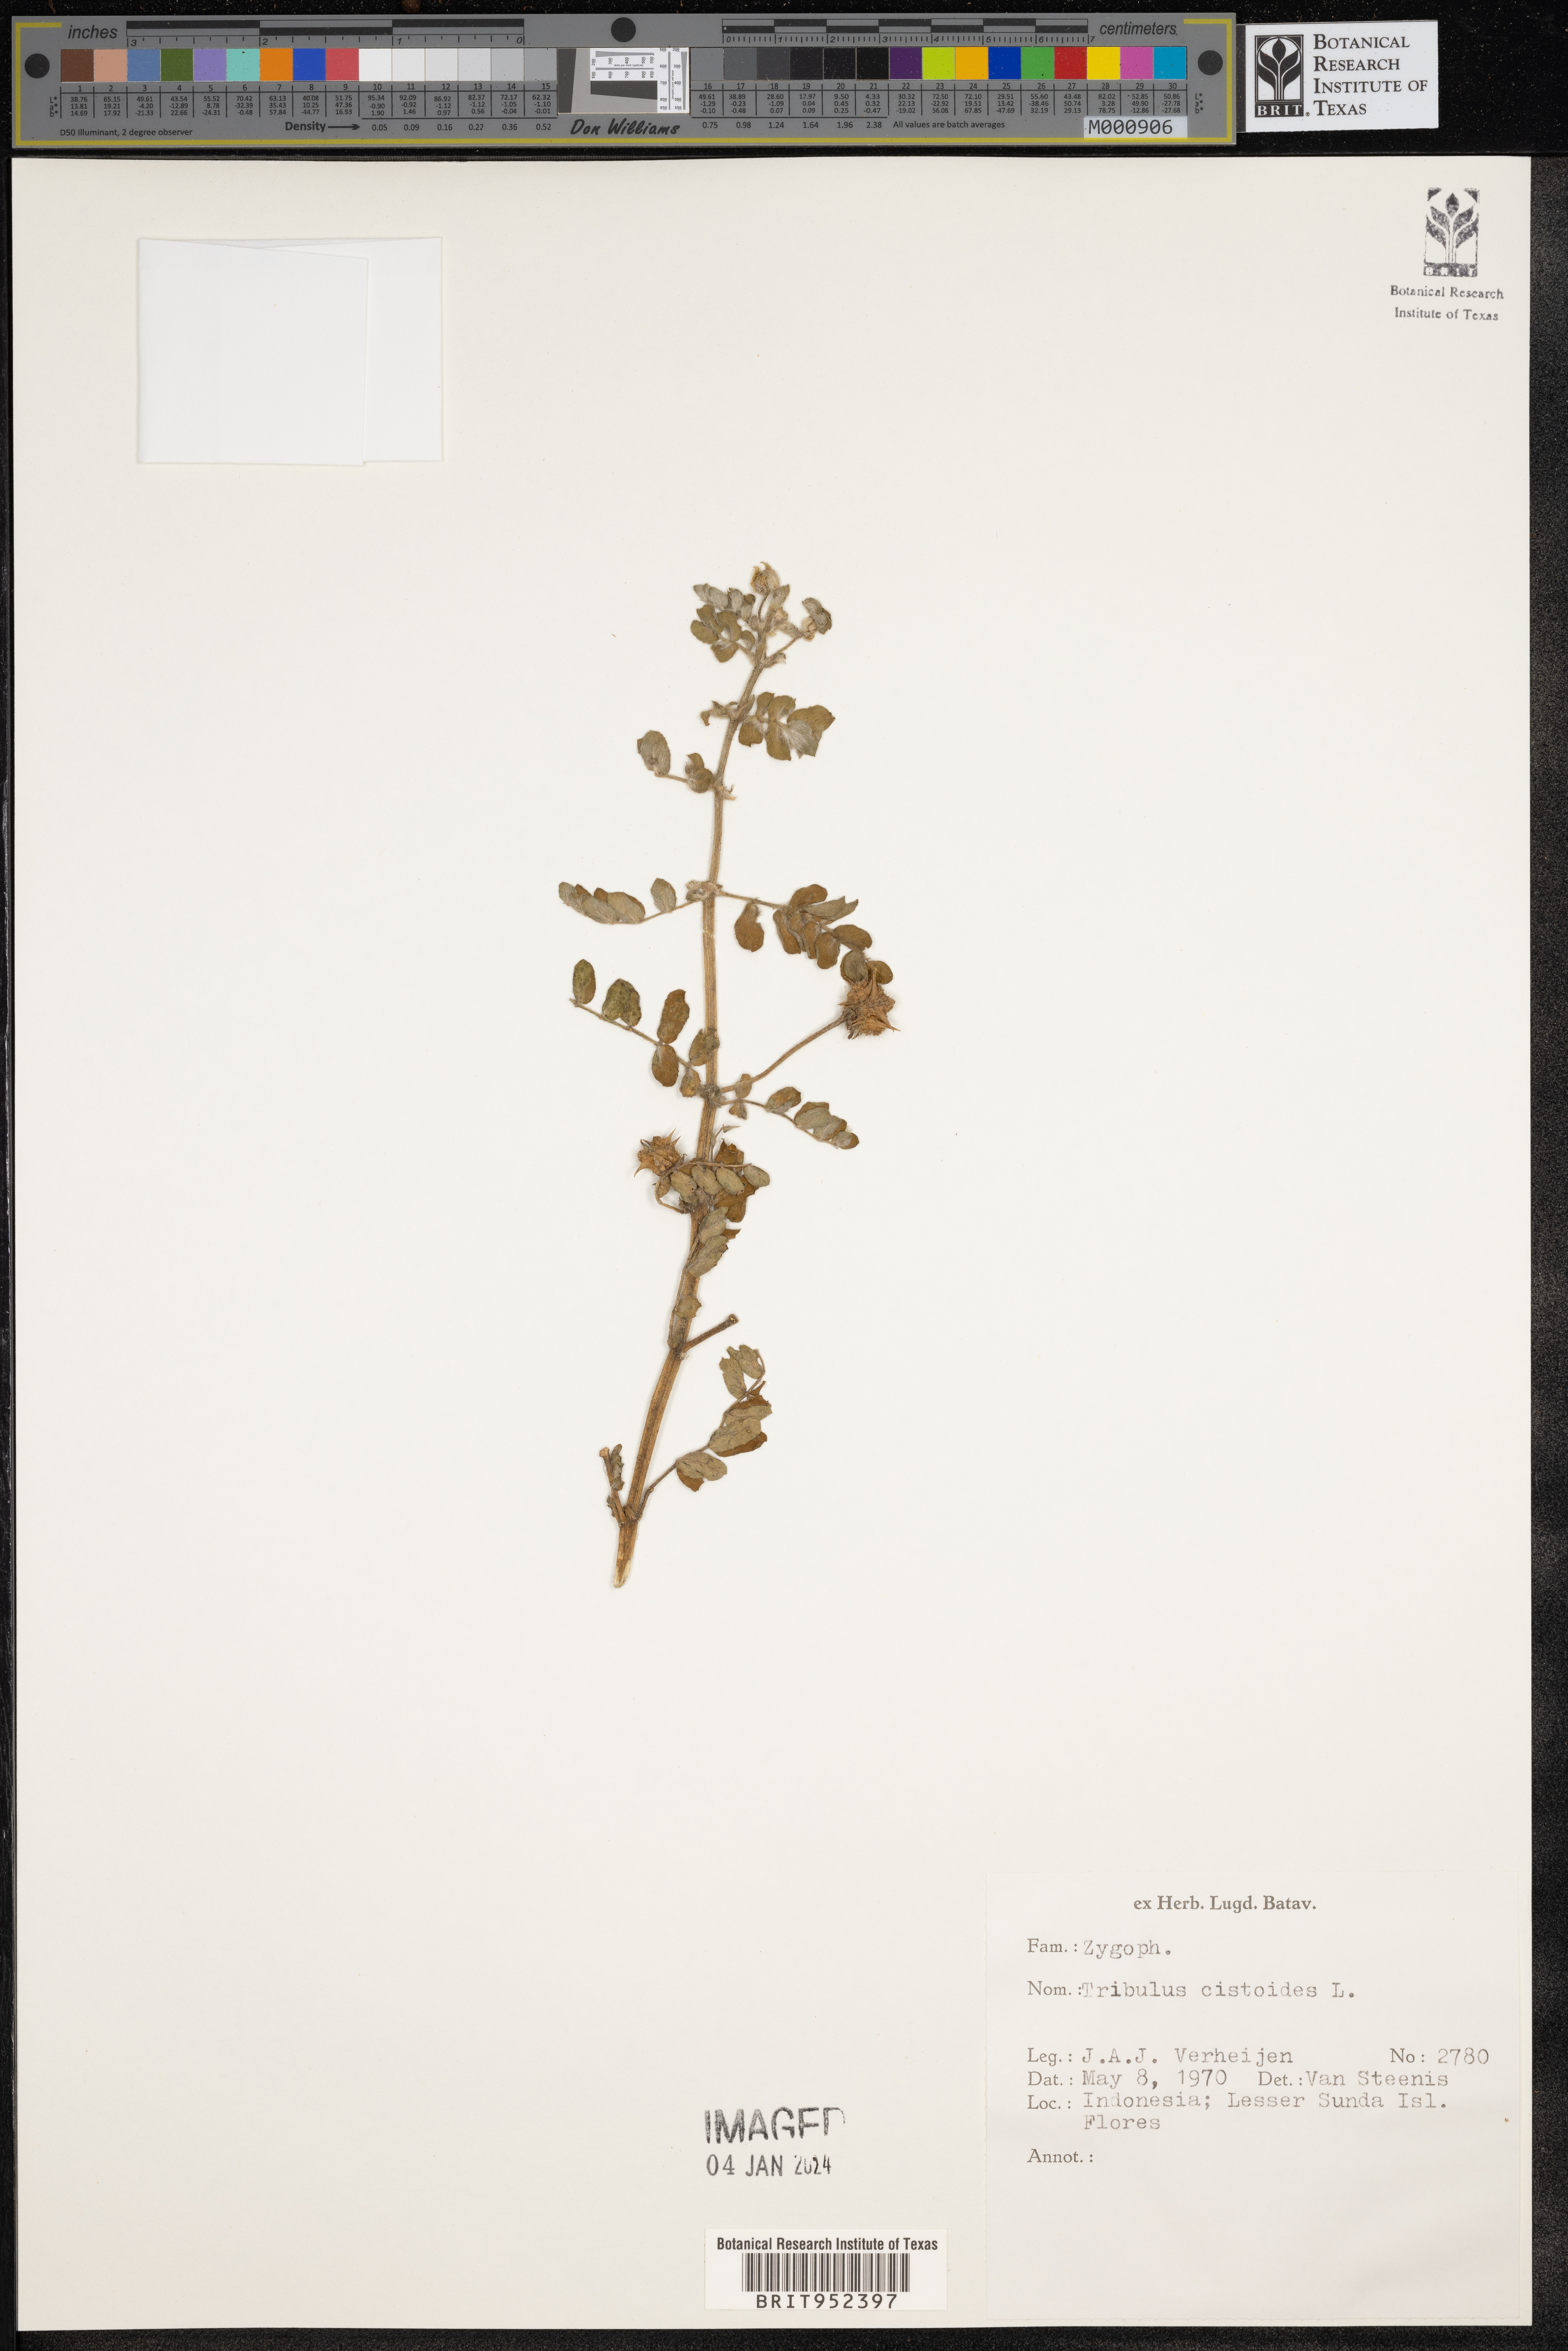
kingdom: Plantae
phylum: Tracheophyta
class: Magnoliopsida
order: Zygophyllales
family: Zygophyllaceae
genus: Tribulus
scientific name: Tribulus
